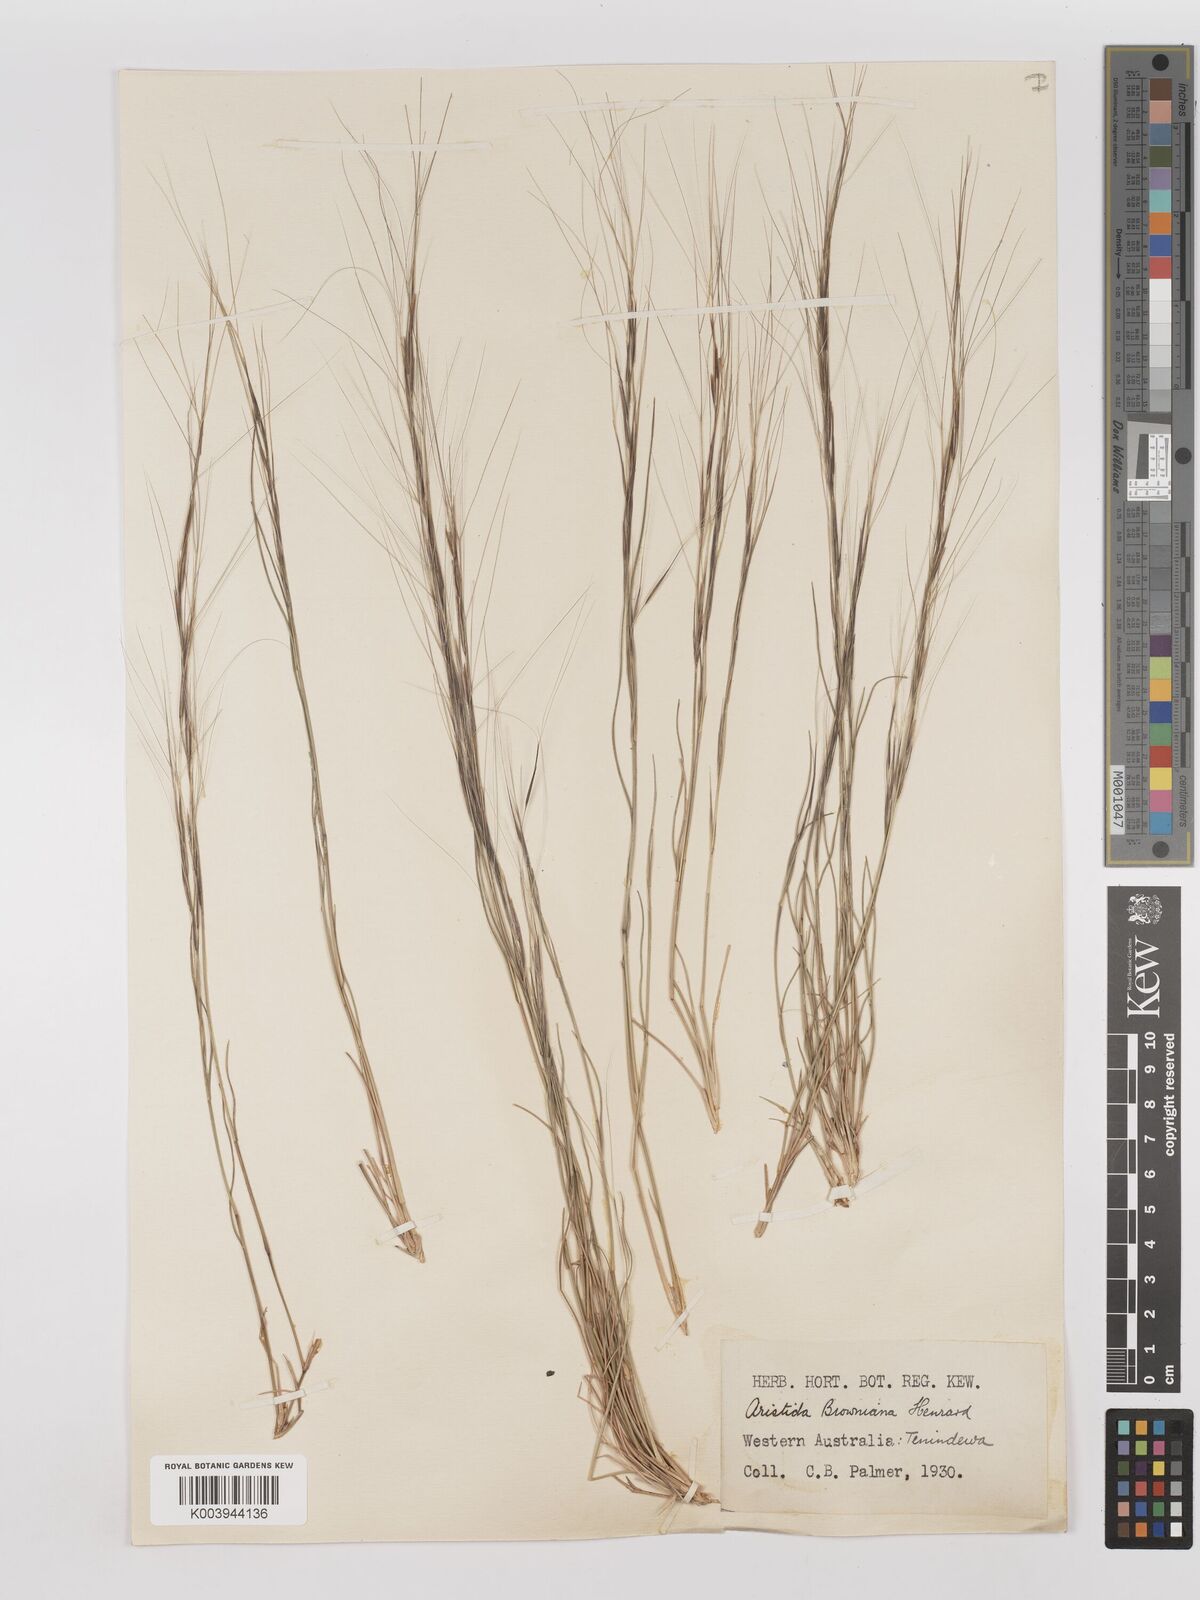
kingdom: Plantae
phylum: Tracheophyta
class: Liliopsida
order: Poales
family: Poaceae
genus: Aristida
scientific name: Aristida holathera
